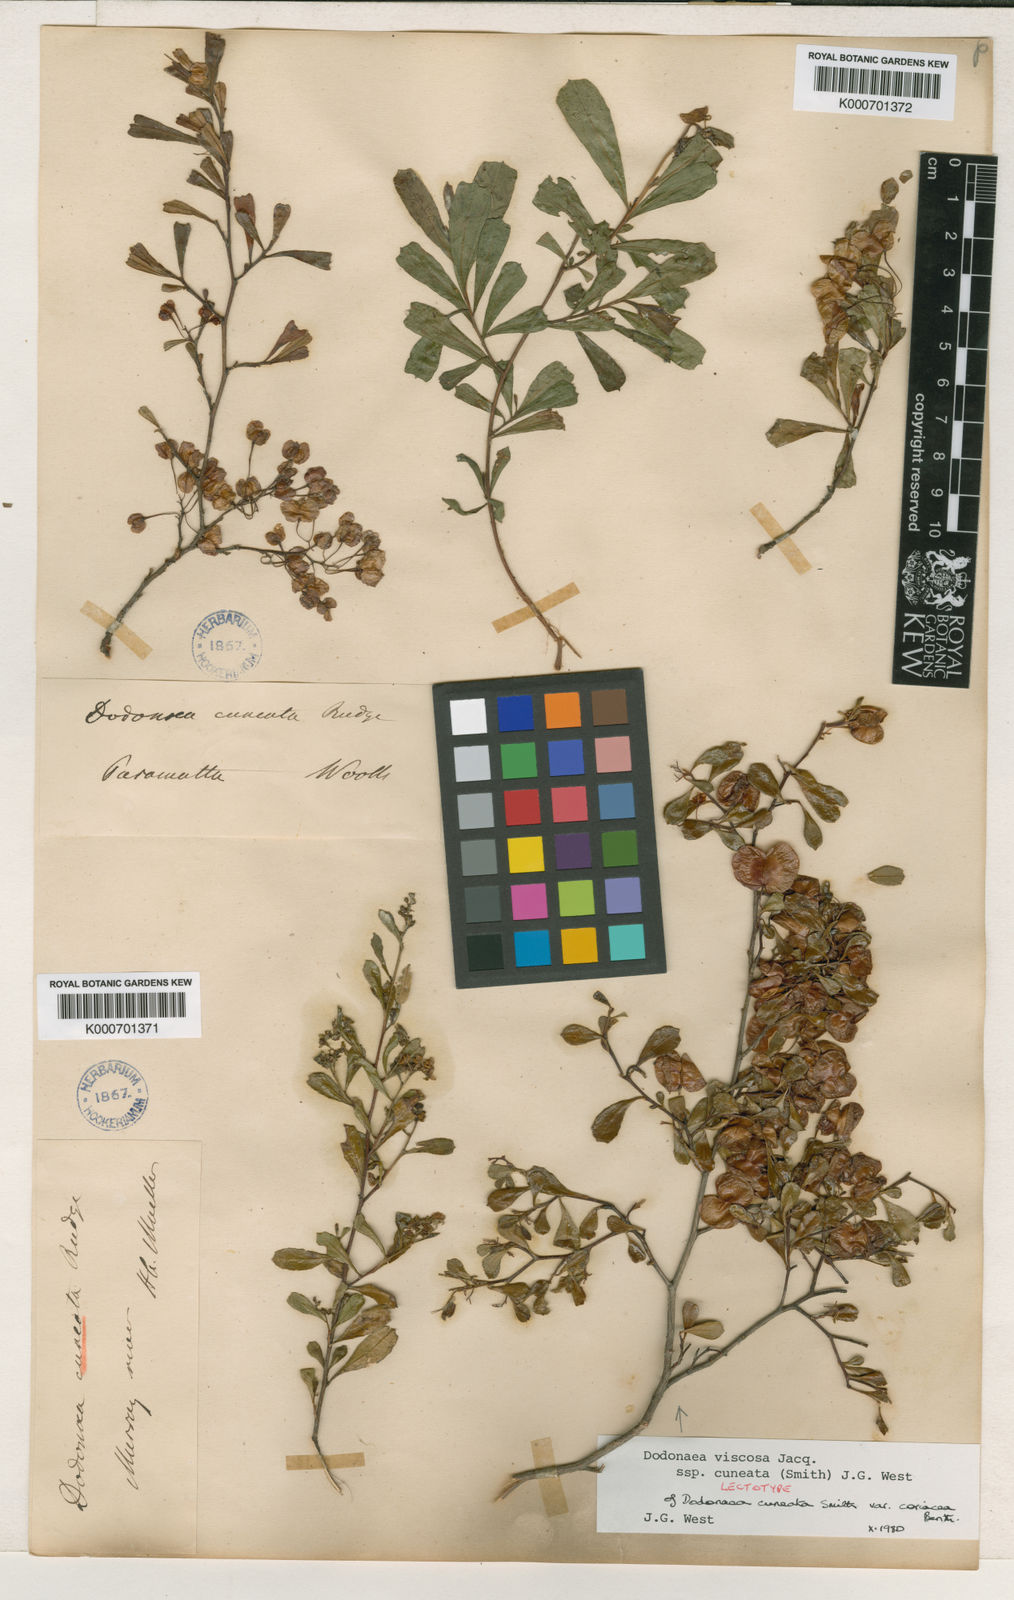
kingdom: Plantae
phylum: Tracheophyta
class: Magnoliopsida
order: Sapindales
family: Sapindaceae
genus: Dodonaea
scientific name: Dodonaea viscosa
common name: Hopbush
